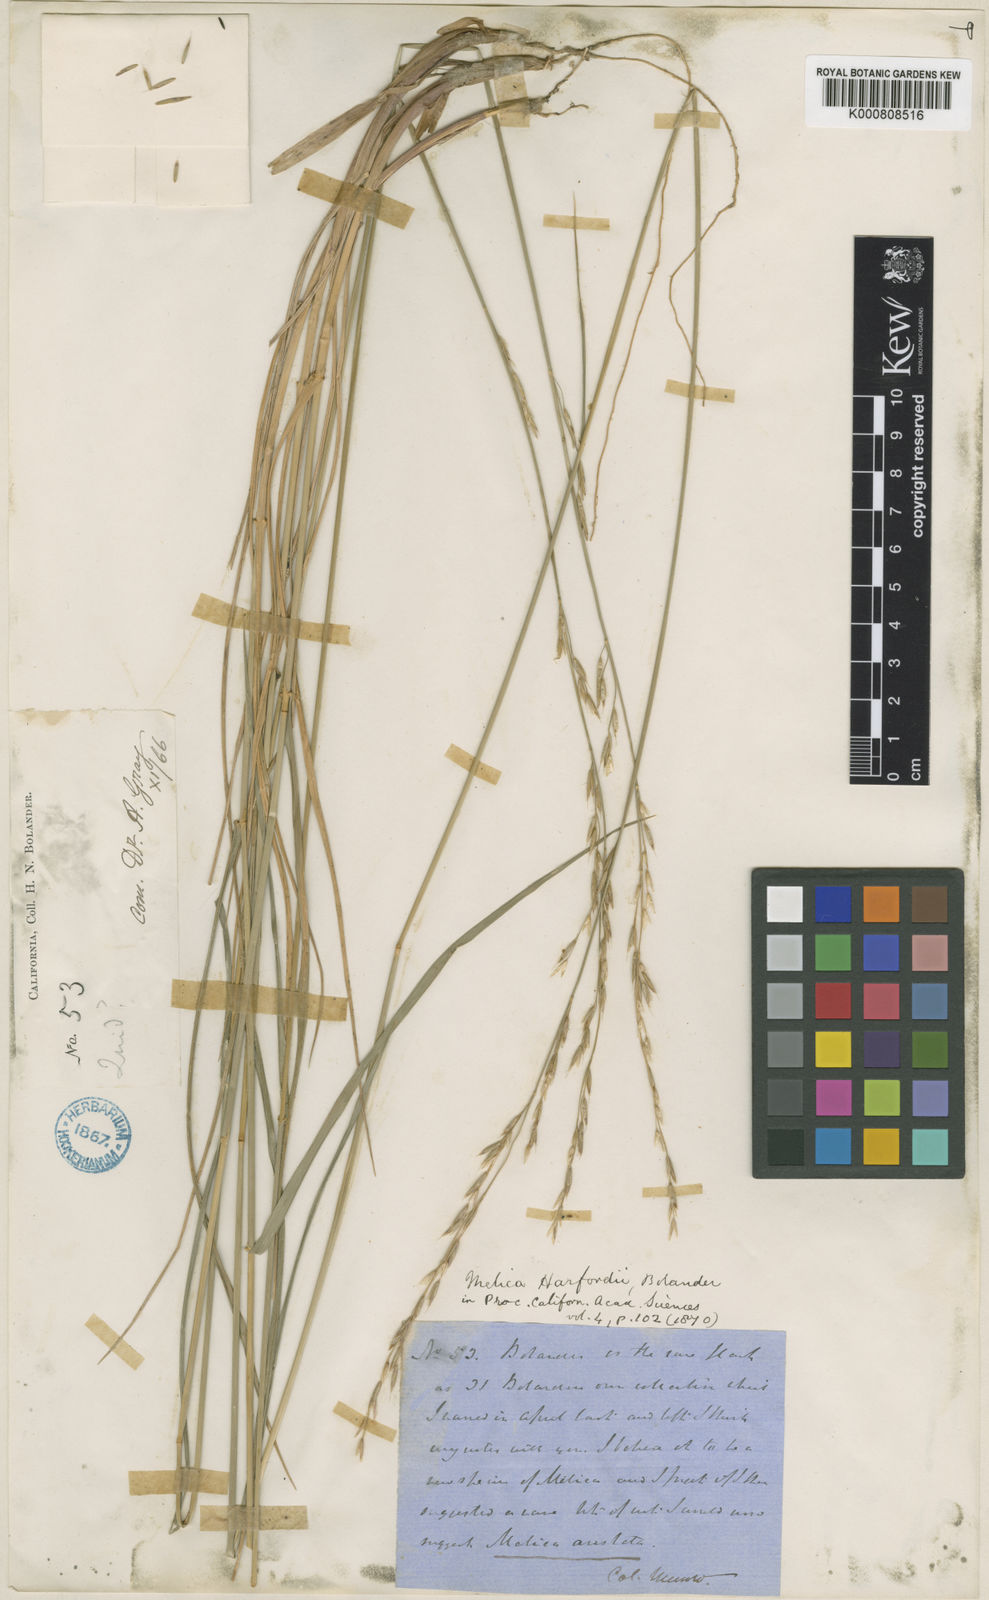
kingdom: Plantae
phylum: Tracheophyta
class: Liliopsida
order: Poales
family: Poaceae
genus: Melica
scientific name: Melica harfordii
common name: Harford's melic
